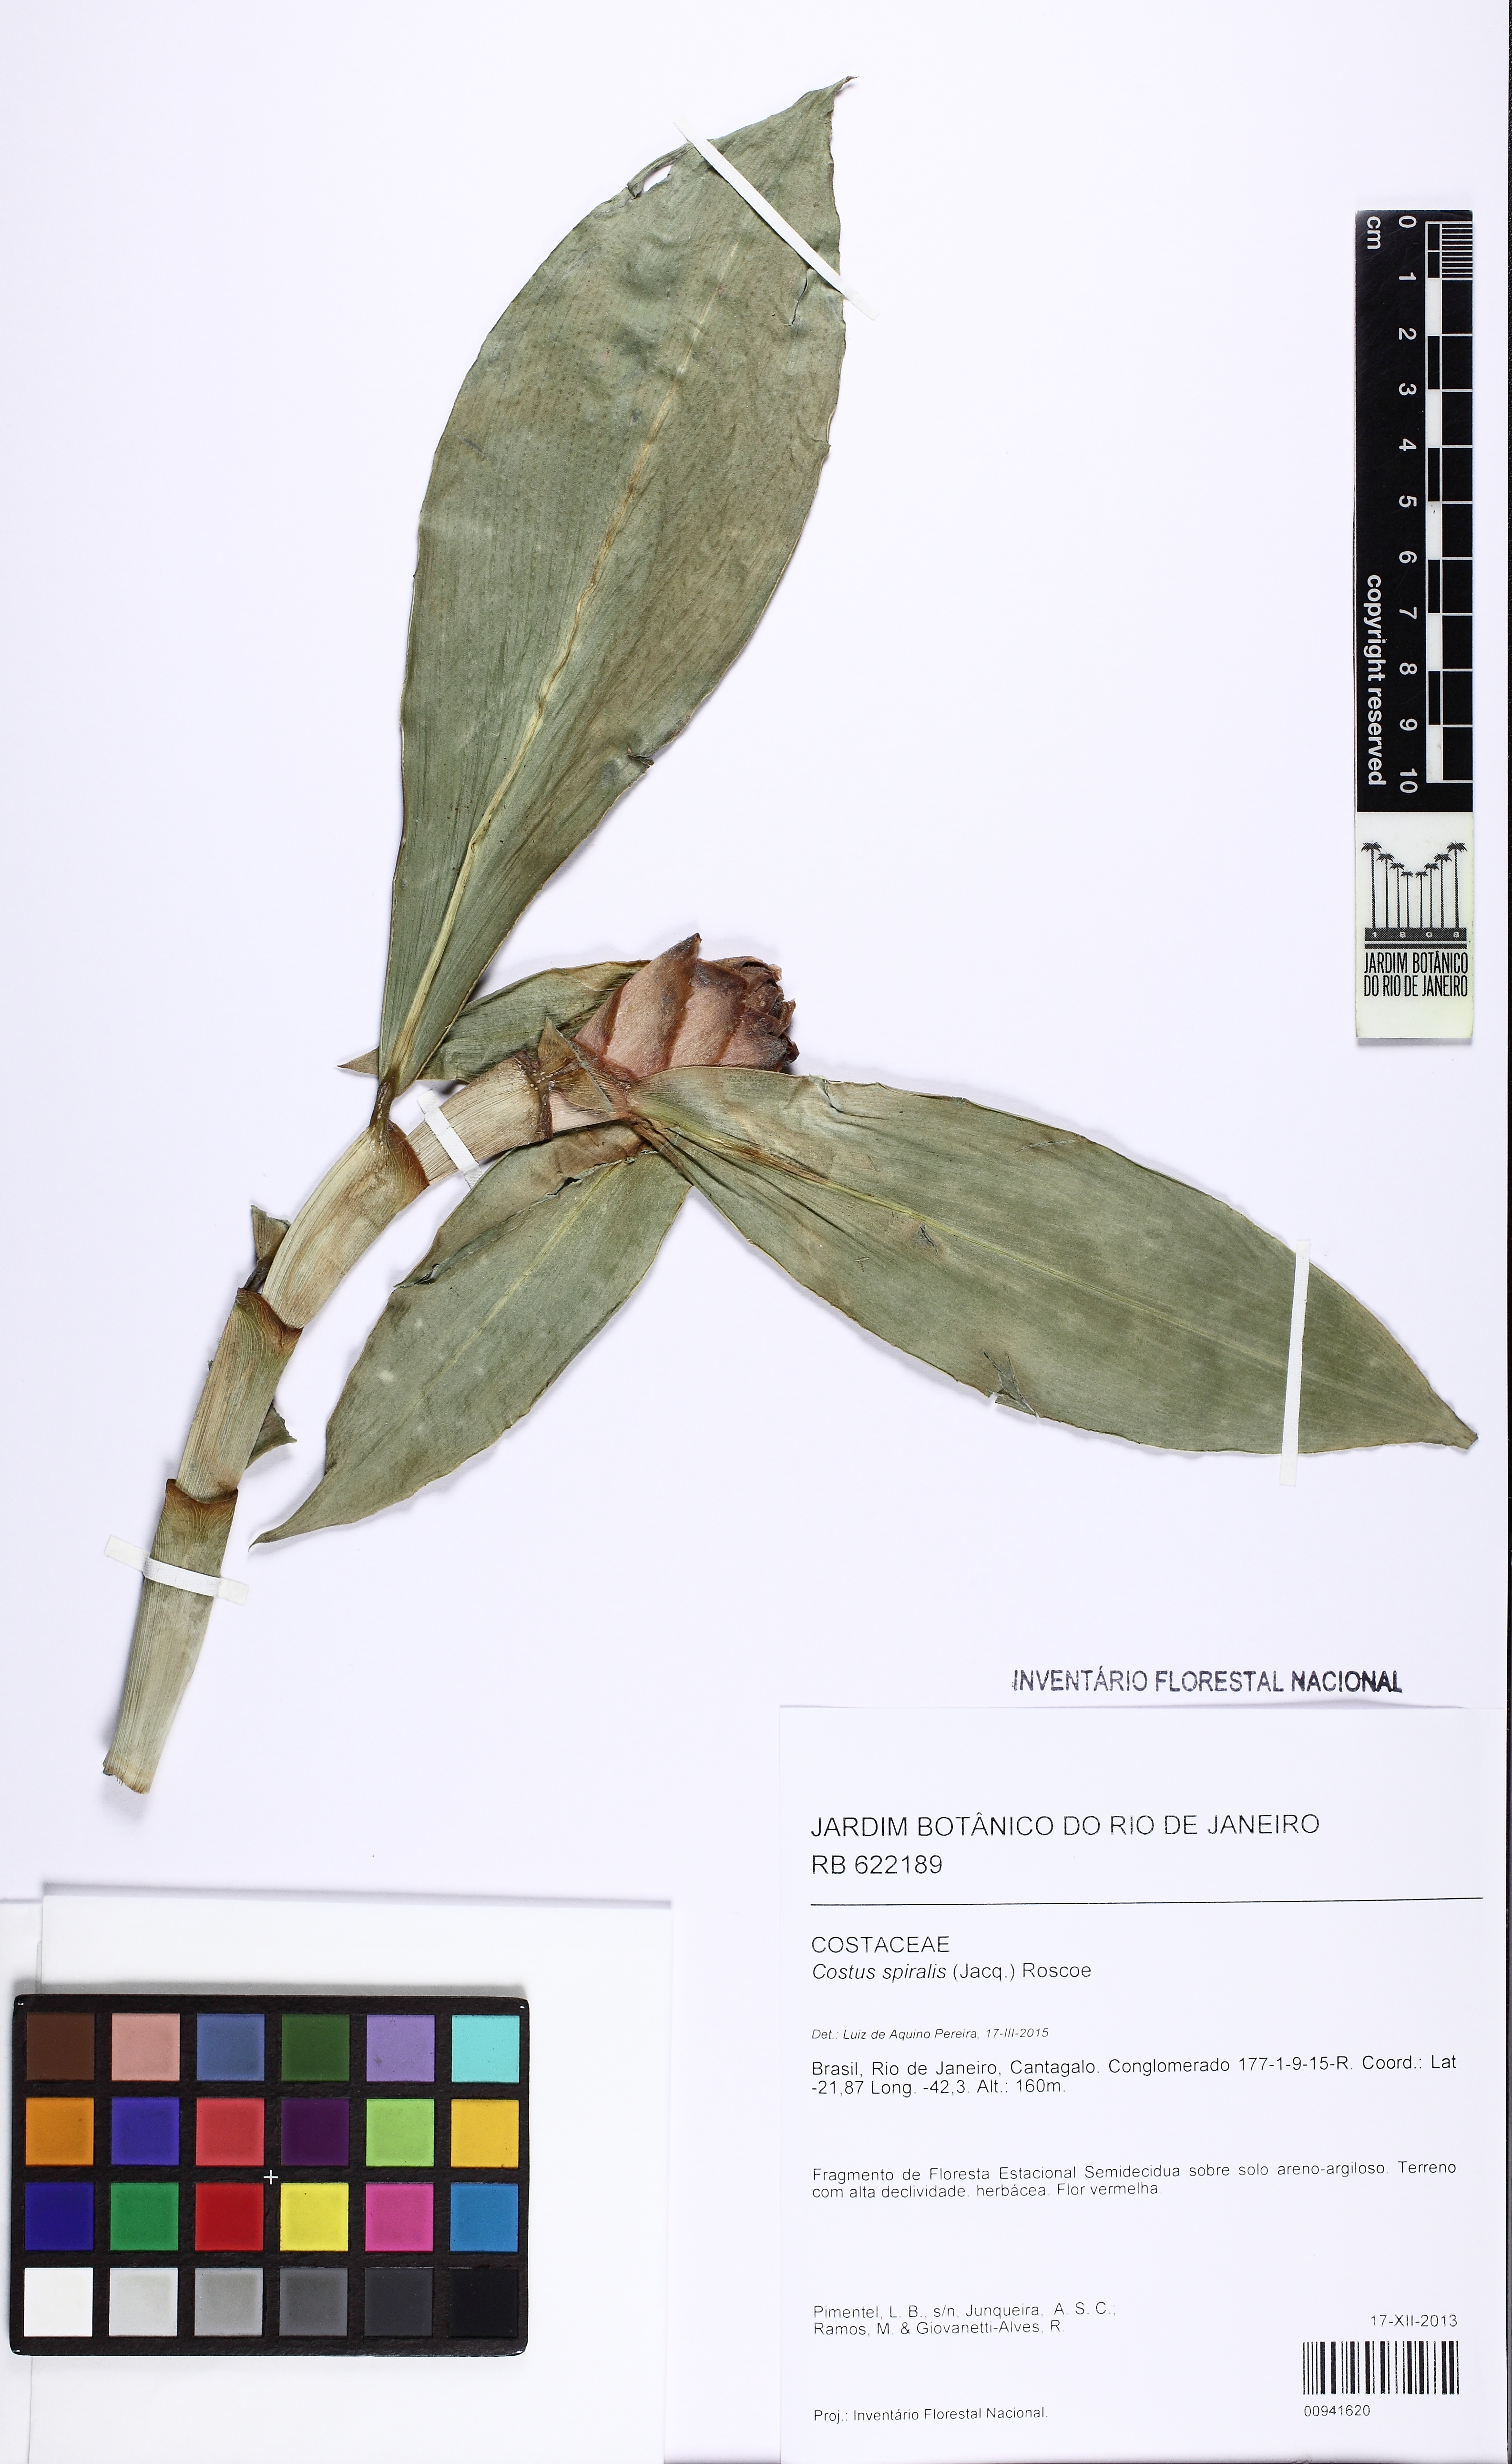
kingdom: Plantae
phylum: Tracheophyta
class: Liliopsida
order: Zingiberales
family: Costaceae
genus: Costus
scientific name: Costus spiralis
